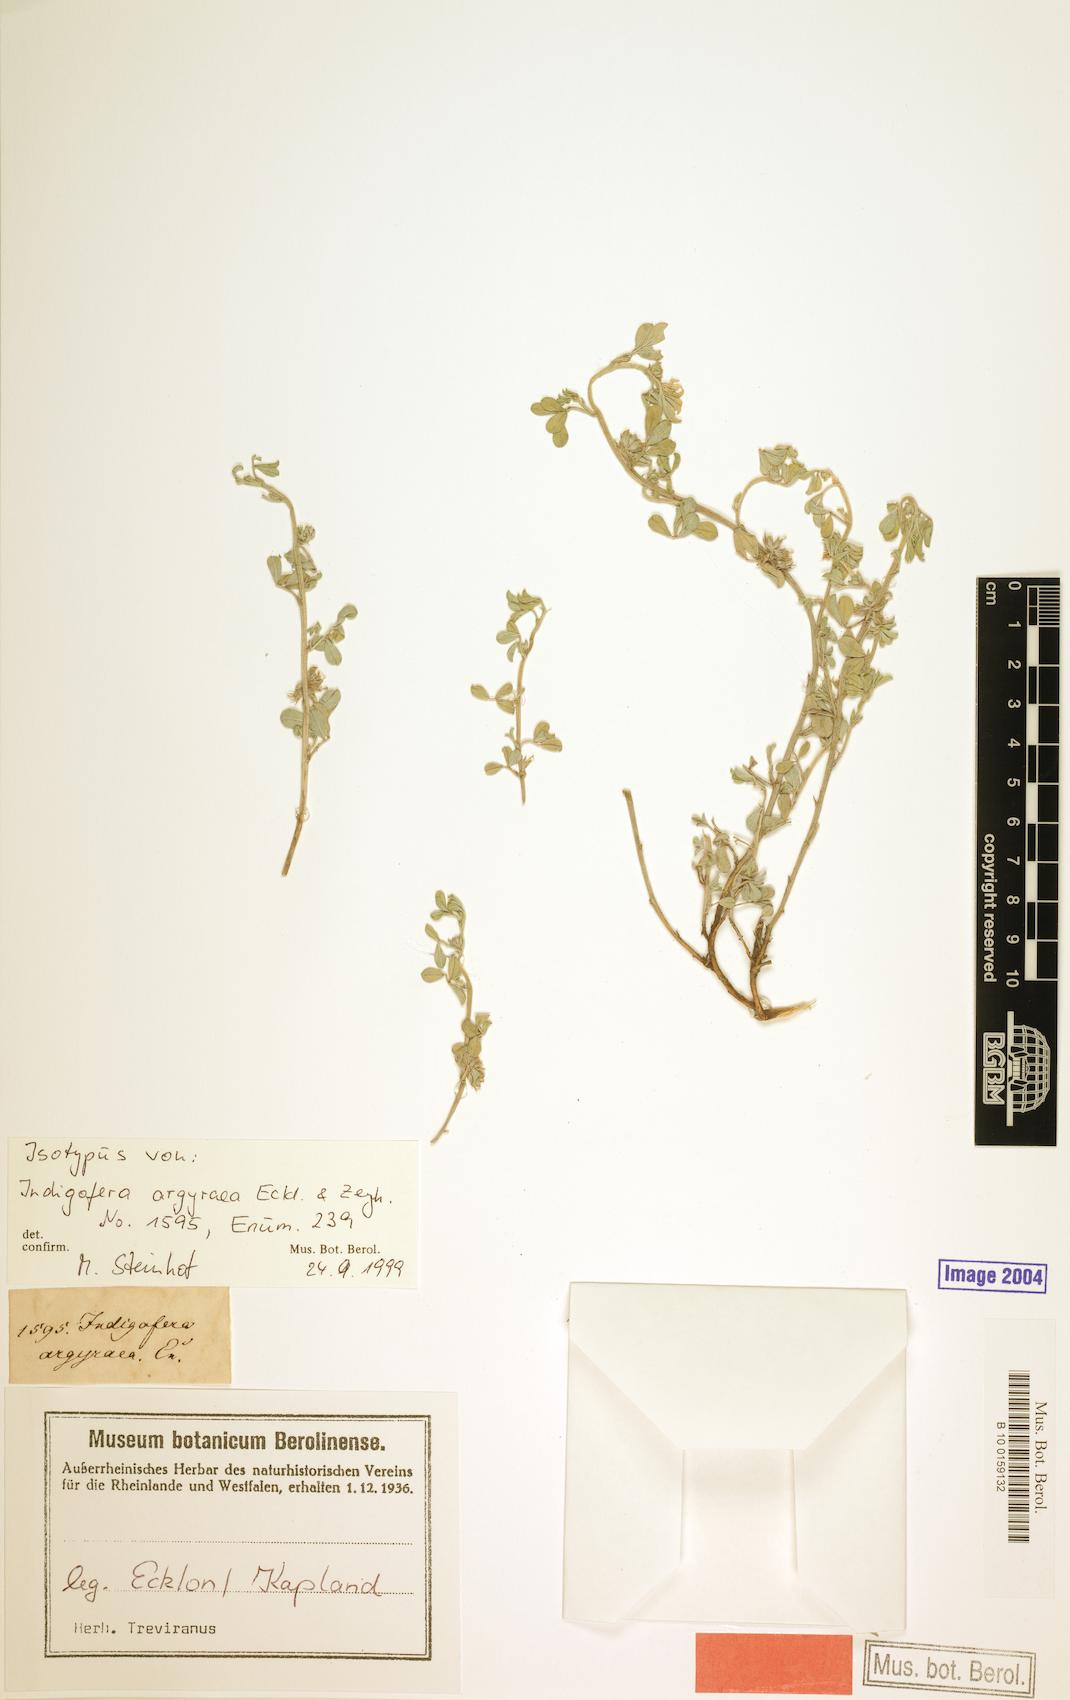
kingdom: Plantae
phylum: Tracheophyta
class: Magnoliopsida
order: Fabales
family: Fabaceae
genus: Indigastrum
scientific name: Indigastrum niveum
